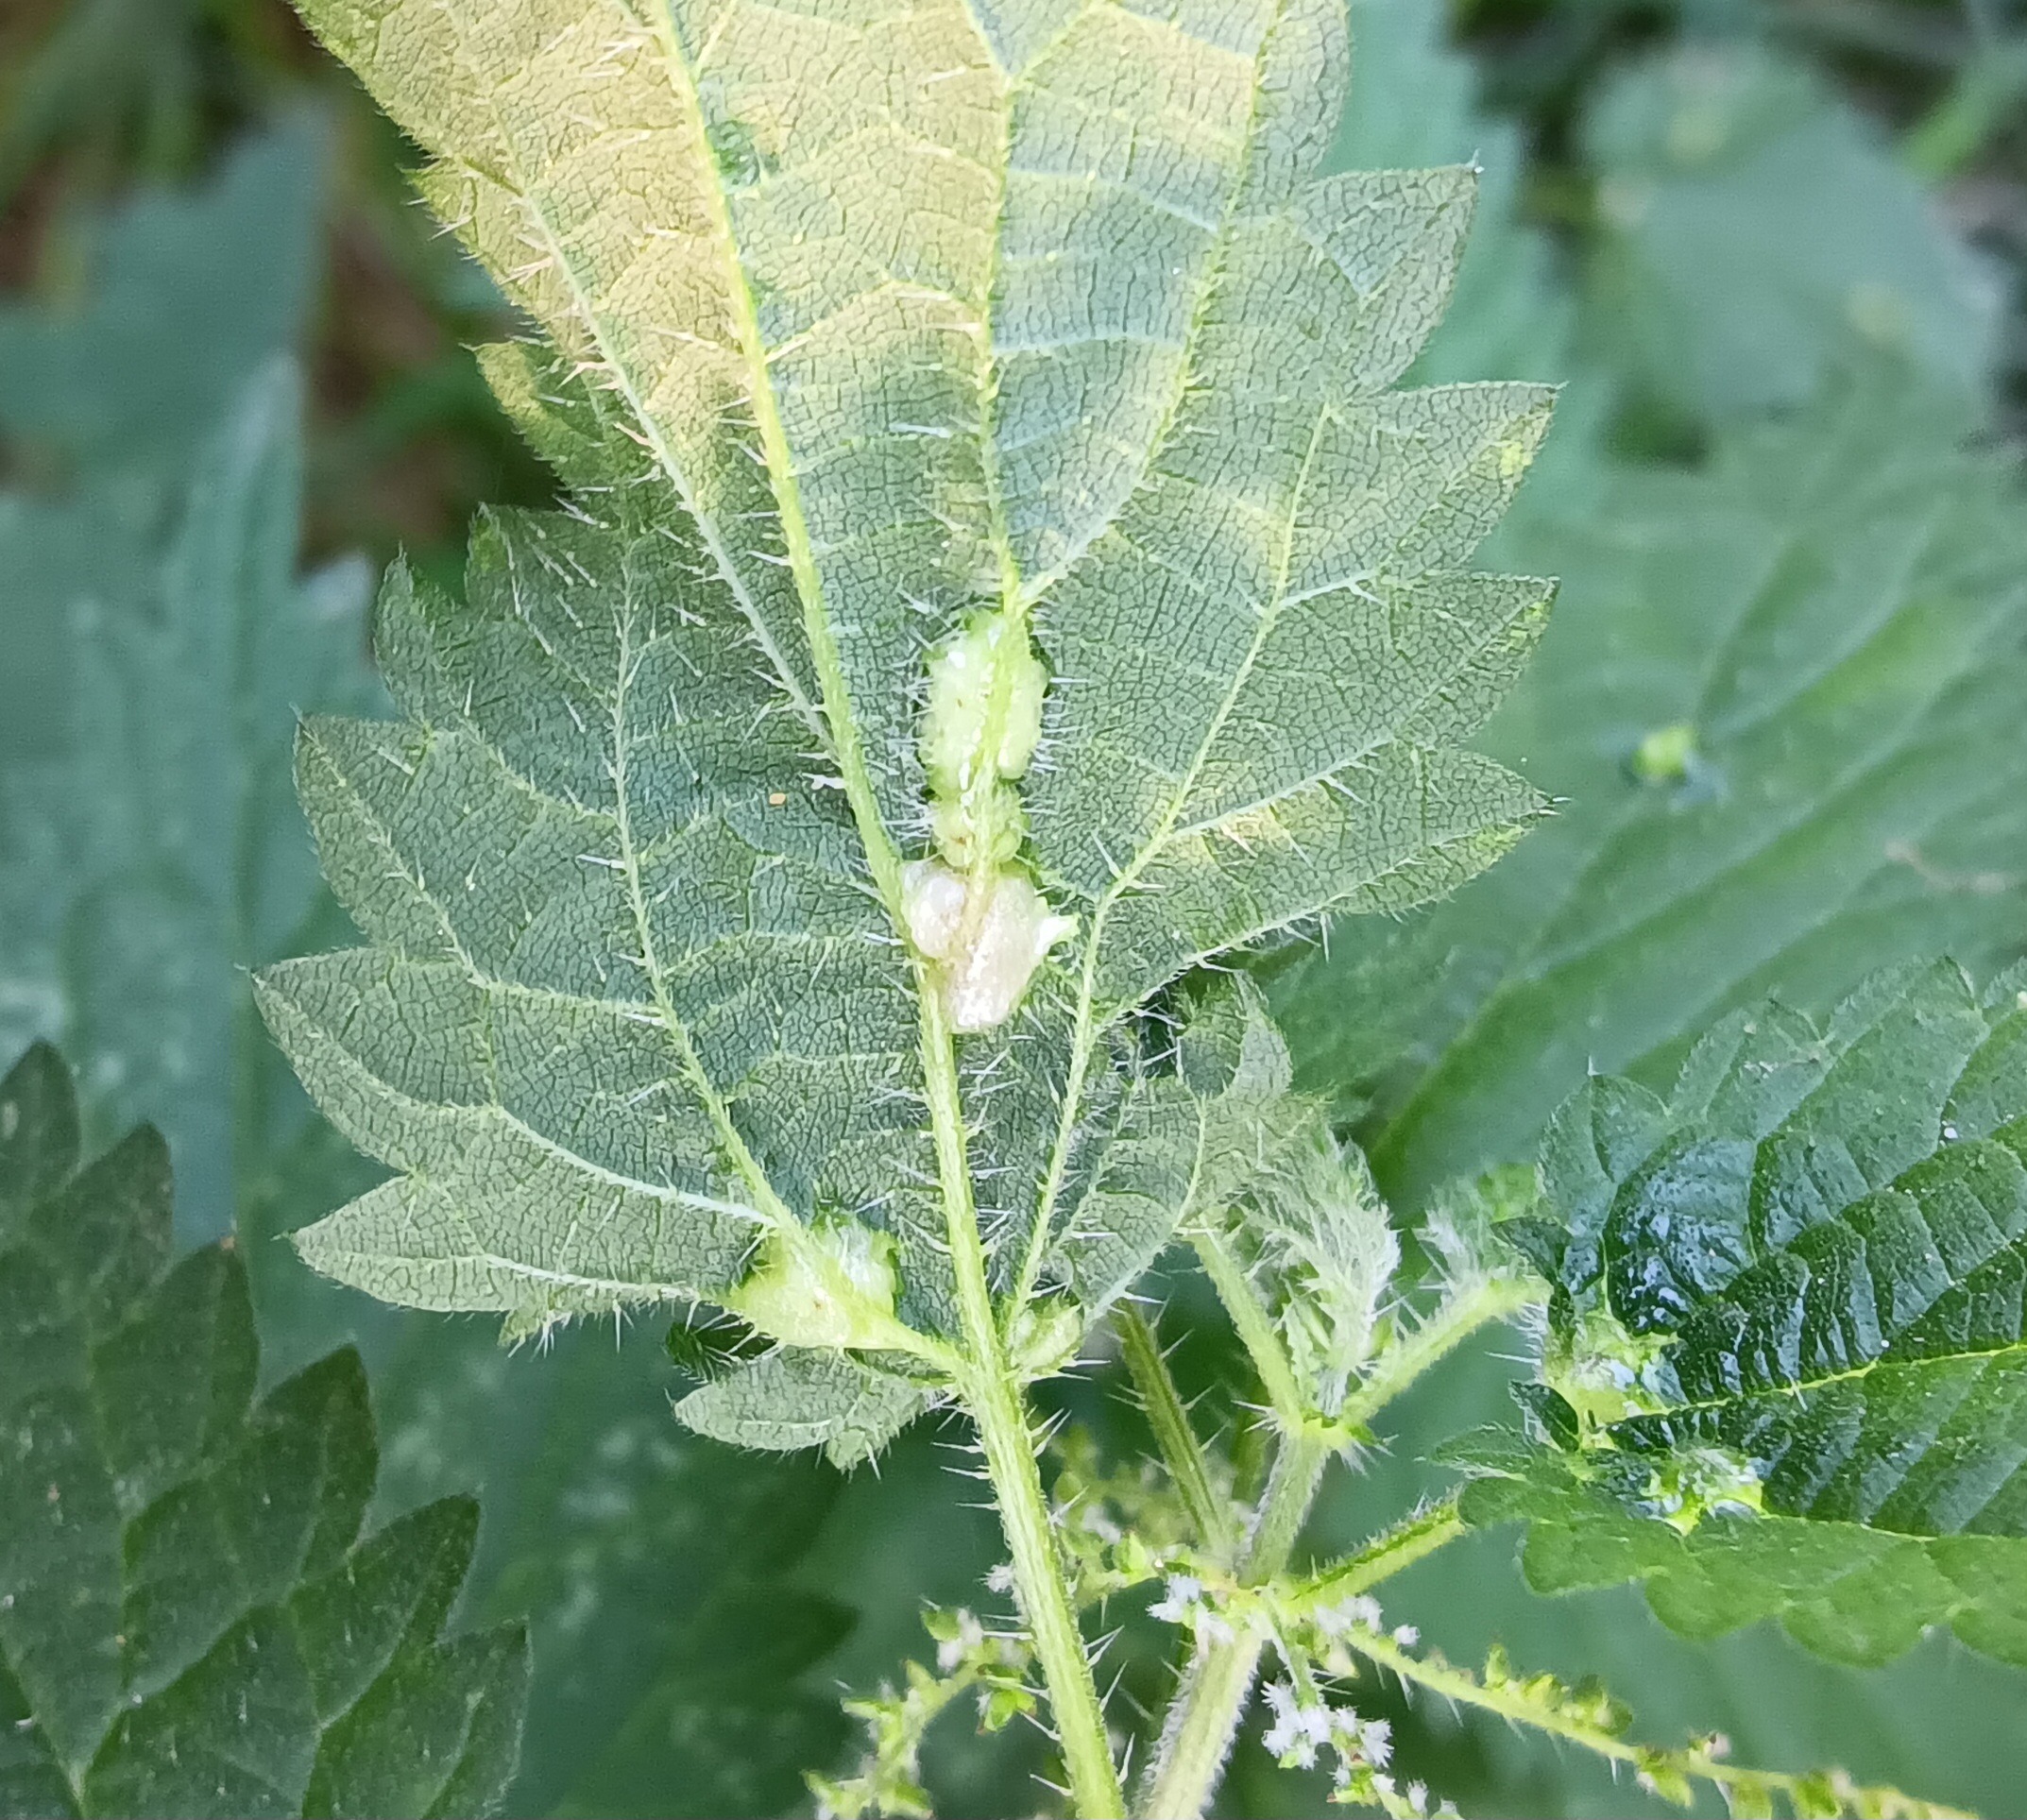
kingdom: Animalia
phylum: Arthropoda
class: Insecta
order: Diptera
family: Cecidomyiidae
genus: Dasineura
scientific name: Dasineura urticae
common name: Nældepunggalmyg
